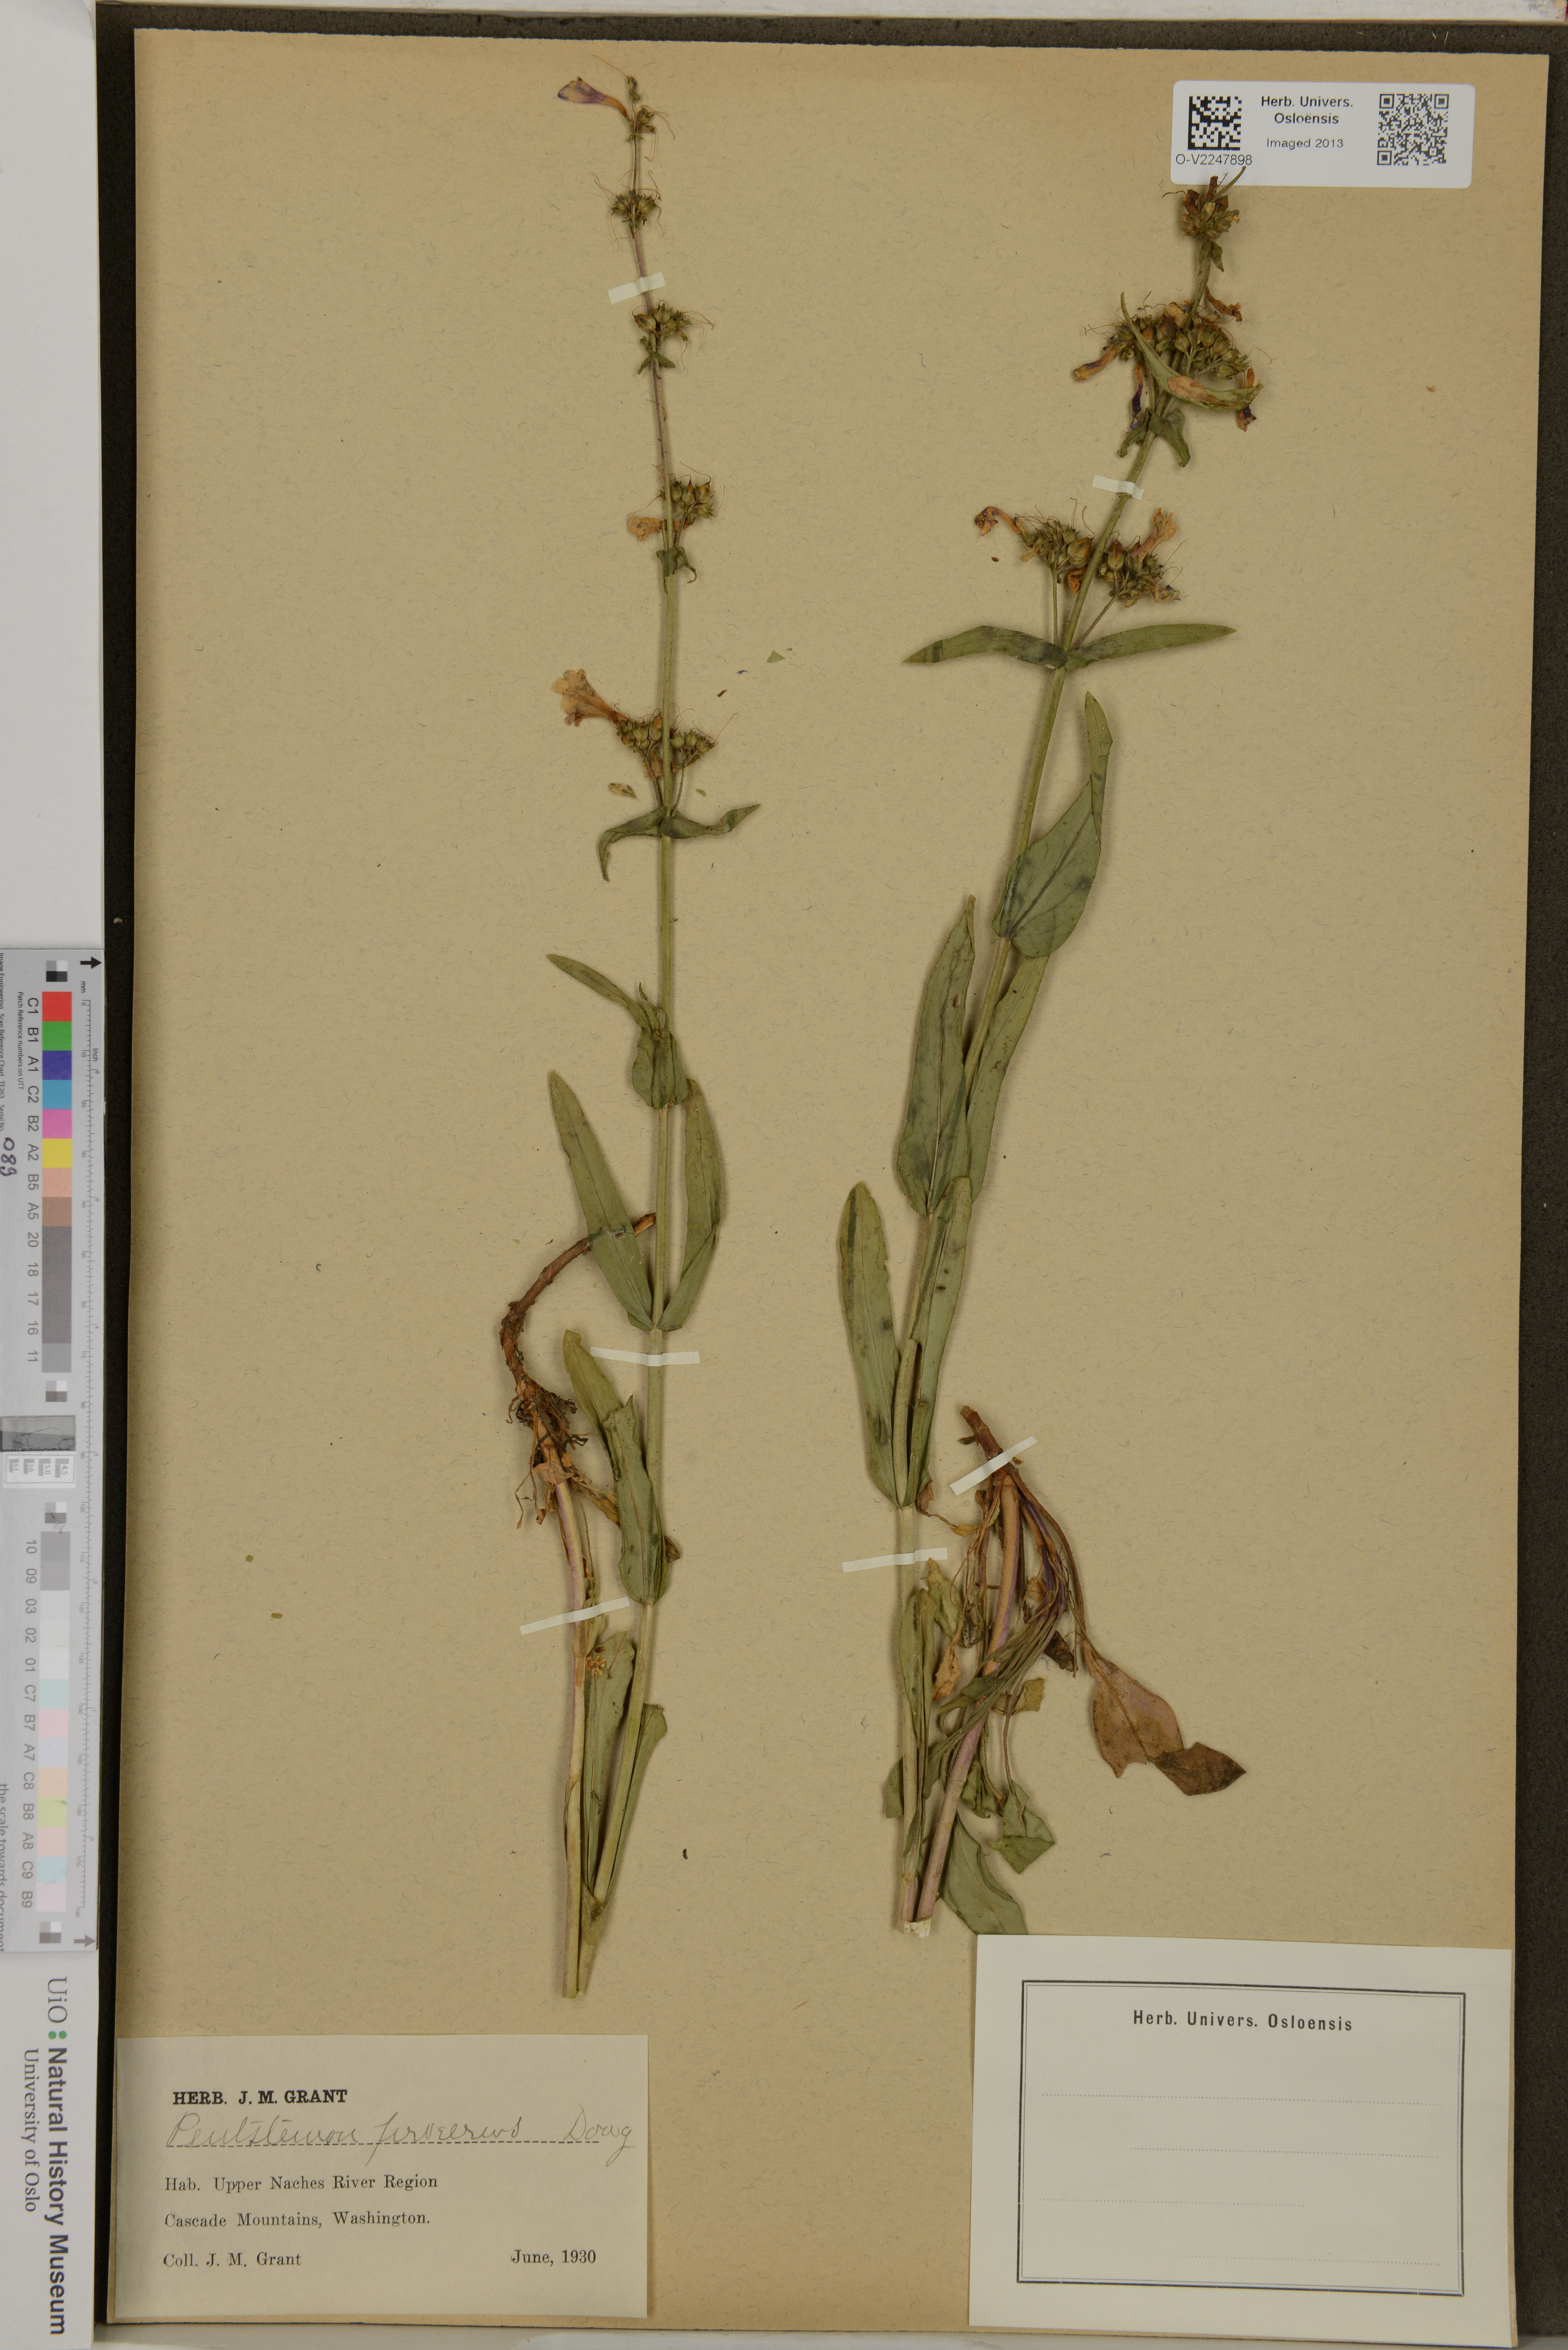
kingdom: Plantae
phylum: Tracheophyta
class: Magnoliopsida
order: Lamiales
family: Plantaginaceae
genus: Penstemon
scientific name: Penstemon procerus
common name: Small-flower penstemon
